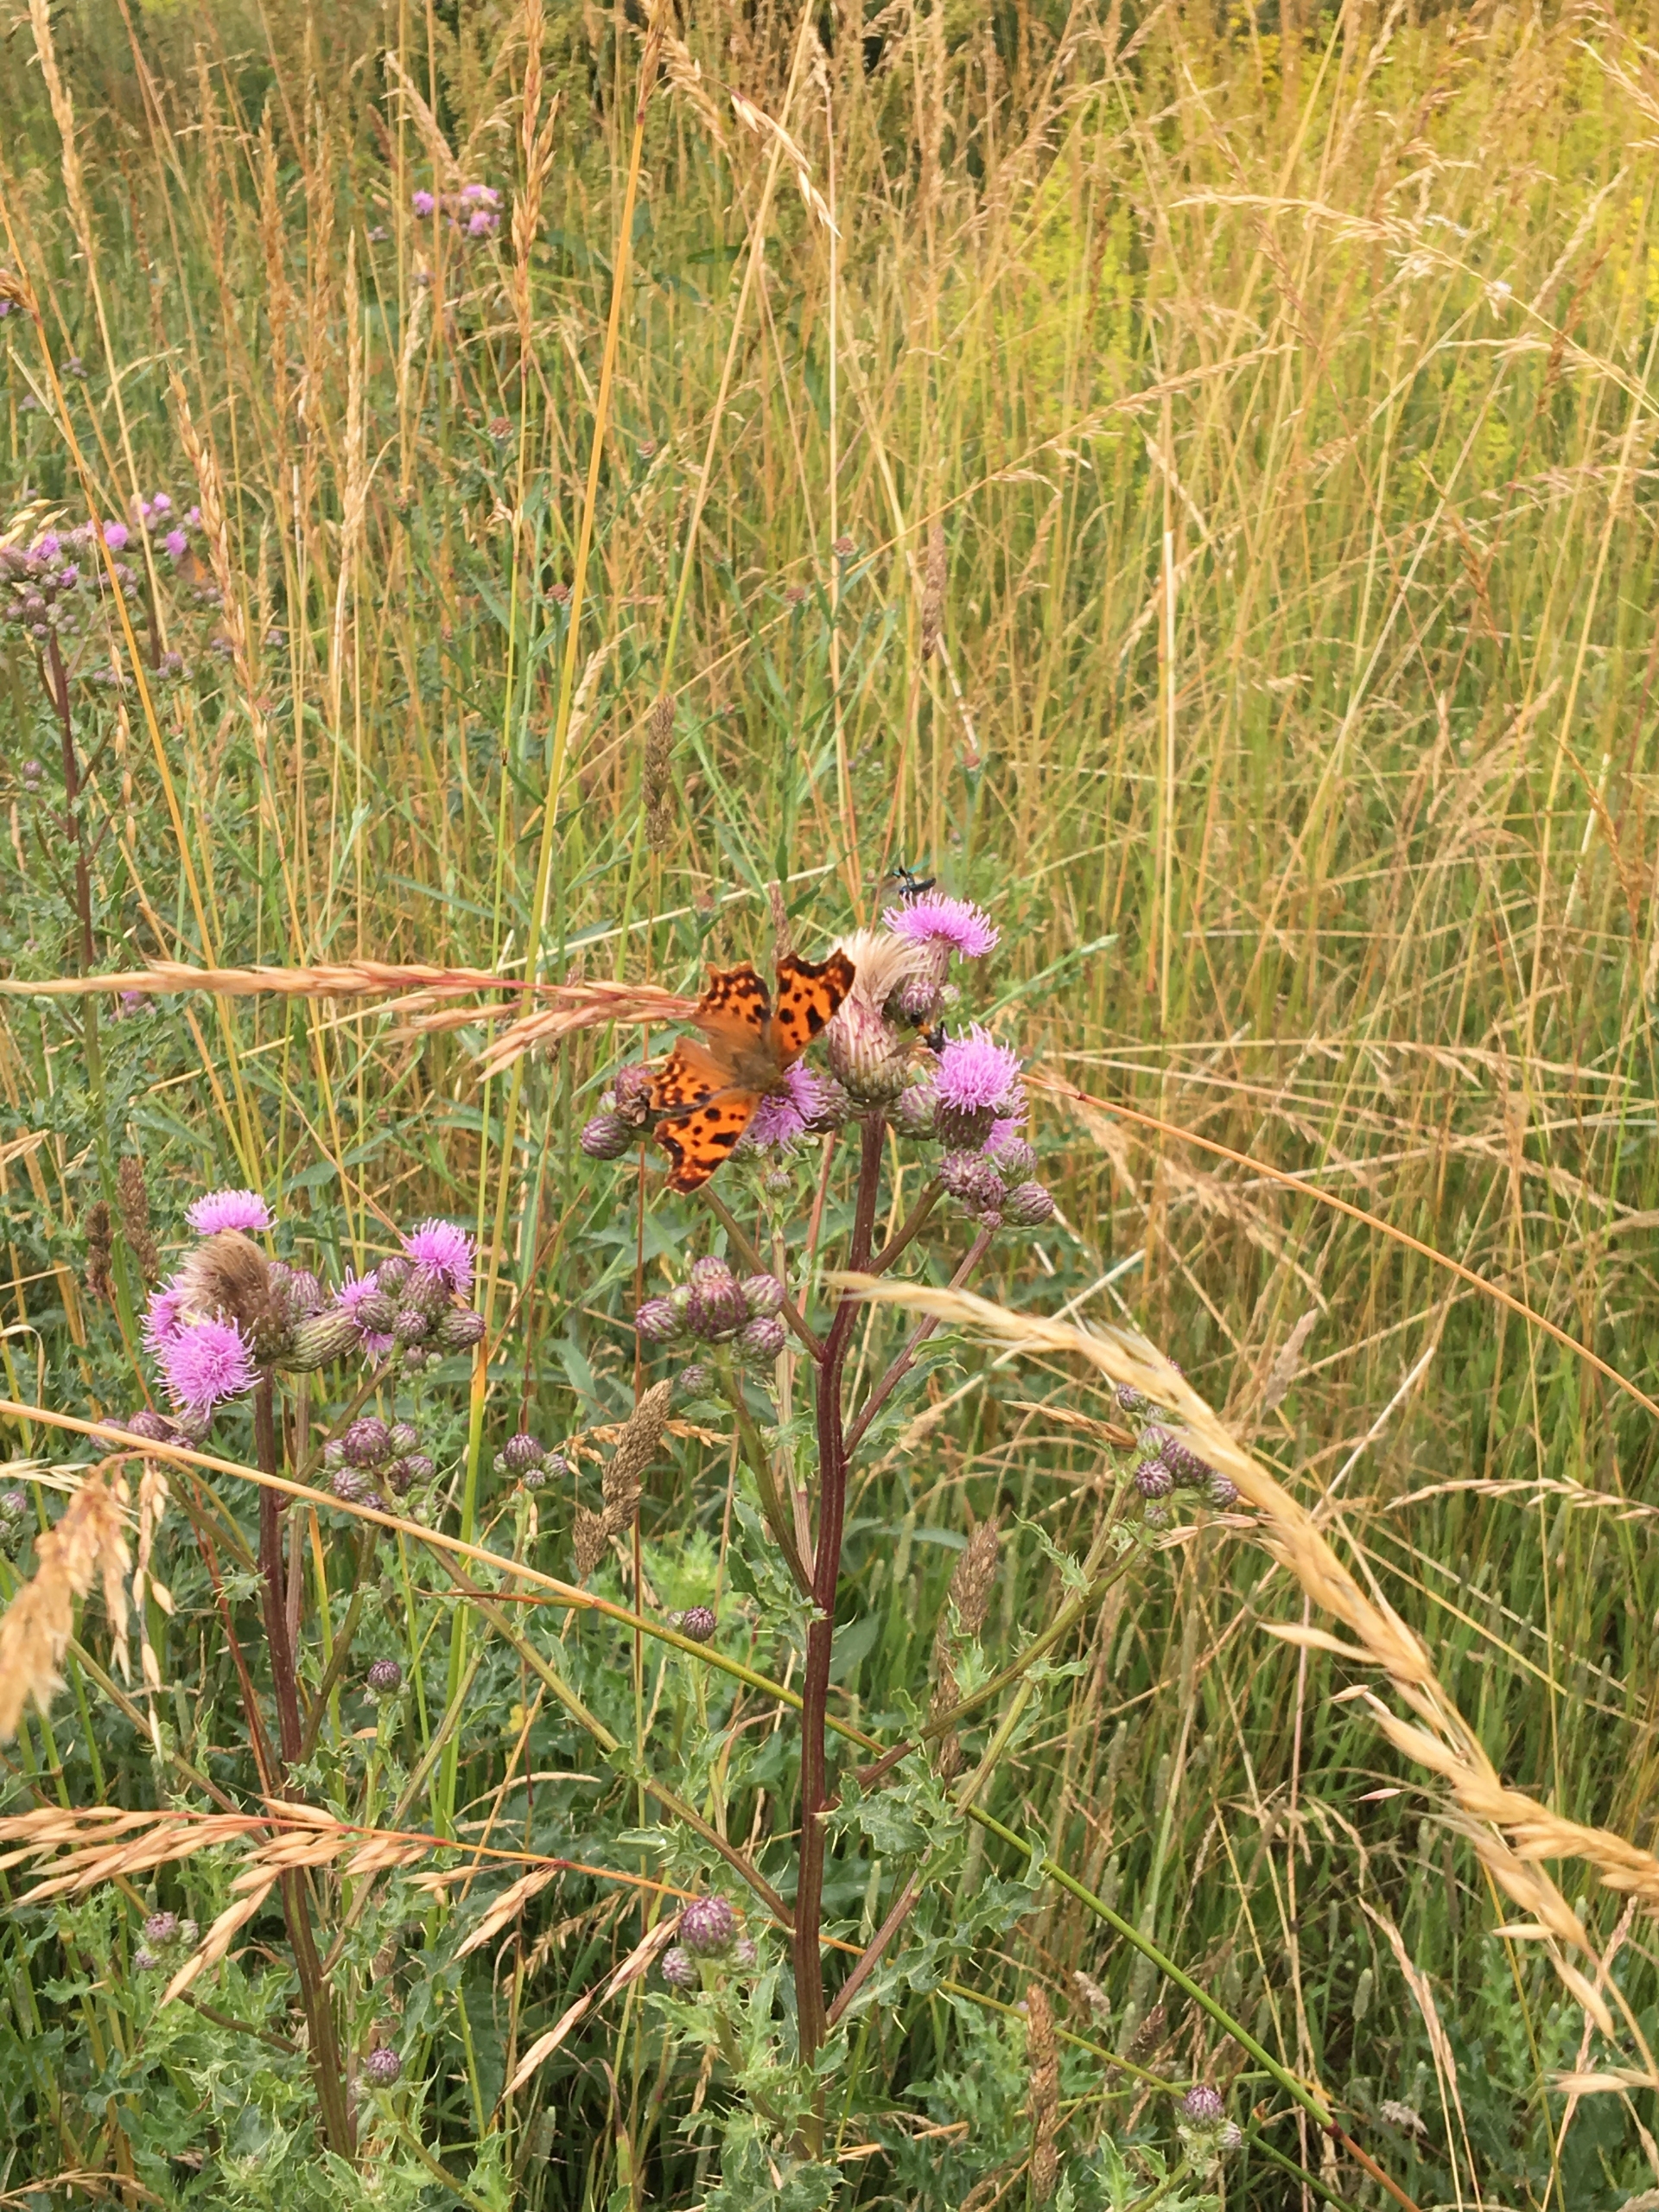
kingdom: Animalia
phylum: Arthropoda
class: Insecta
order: Lepidoptera
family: Nymphalidae
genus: Polygonia
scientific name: Polygonia c-album
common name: Det hvide C
